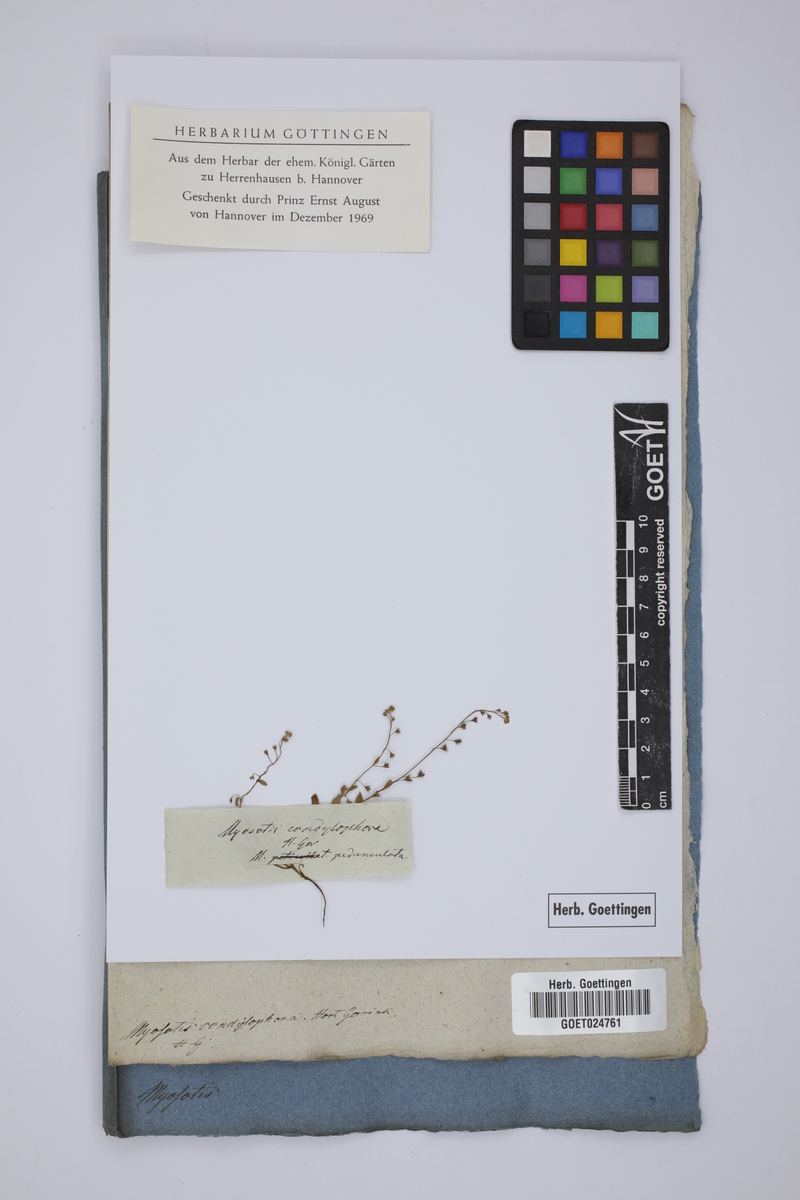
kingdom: Plantae
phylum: Tracheophyta
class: Magnoliopsida
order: Boraginales
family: Boraginaceae
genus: Trigonotis
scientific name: Trigonotis peduncularis
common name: Cucumber herb
